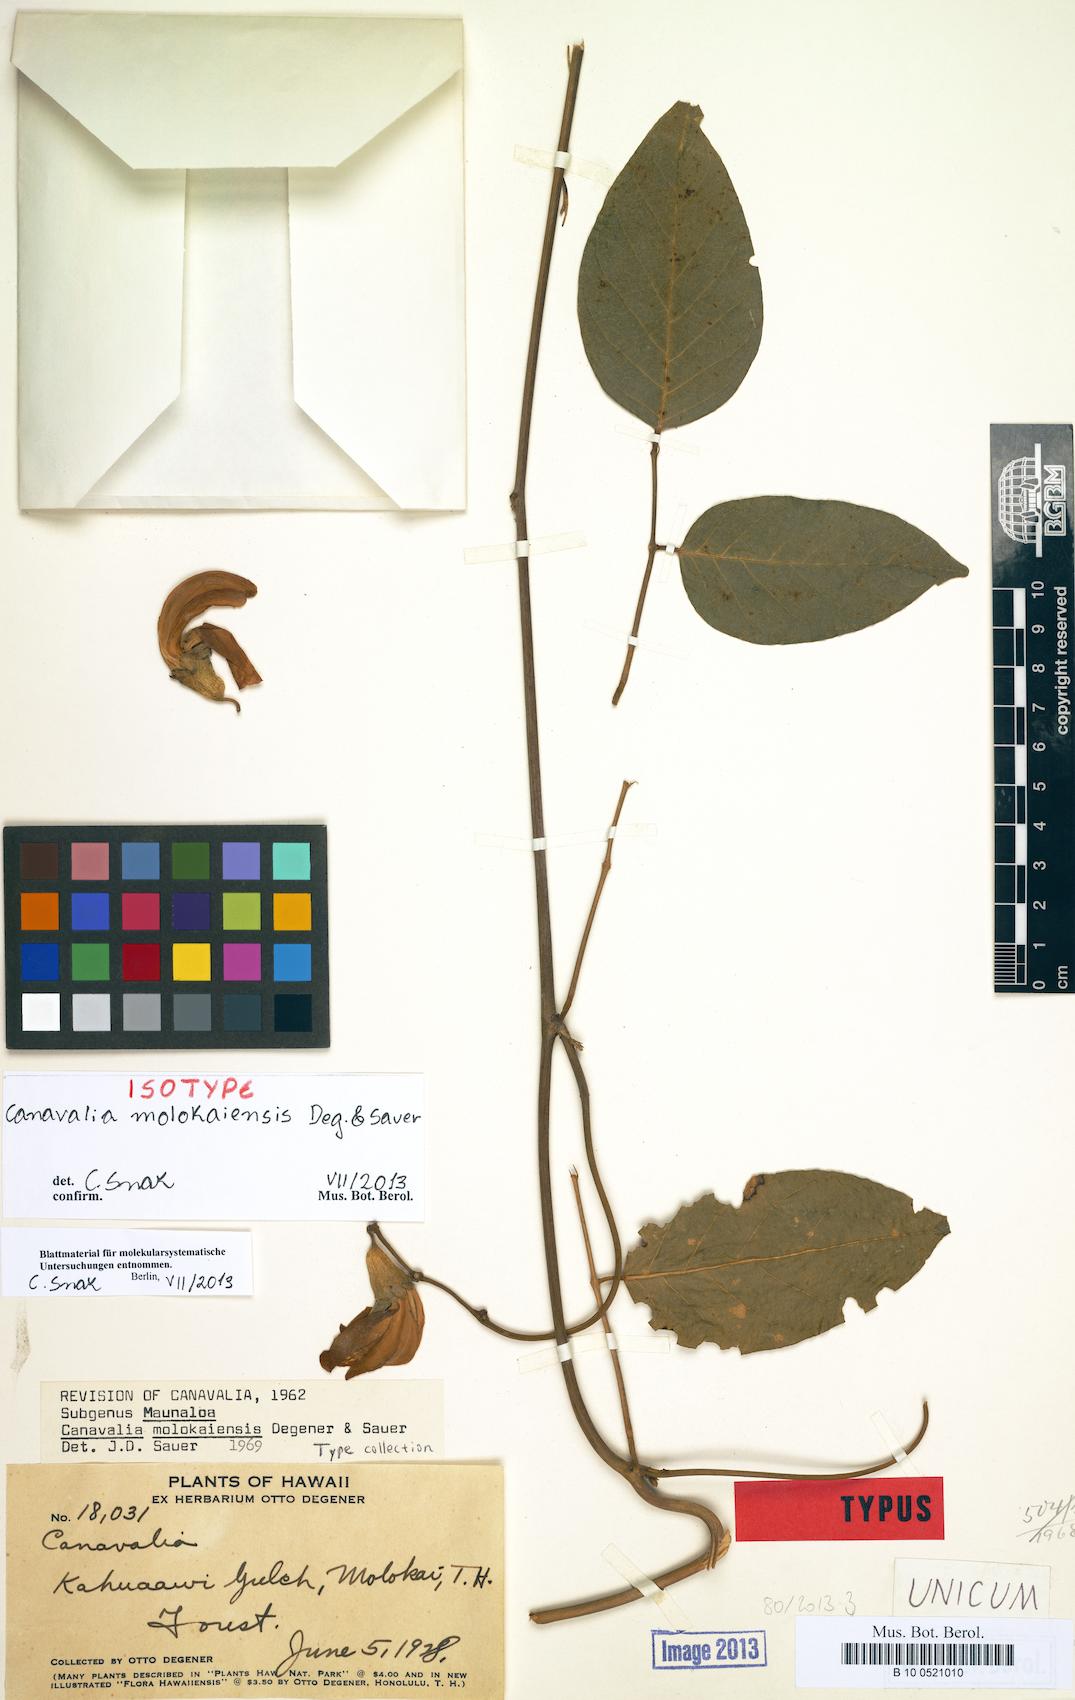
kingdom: Plantae
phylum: Tracheophyta
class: Magnoliopsida
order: Fabales
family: Fabaceae
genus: Canavalia
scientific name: Canavalia molokaiensis
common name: Molokai jack-bean
